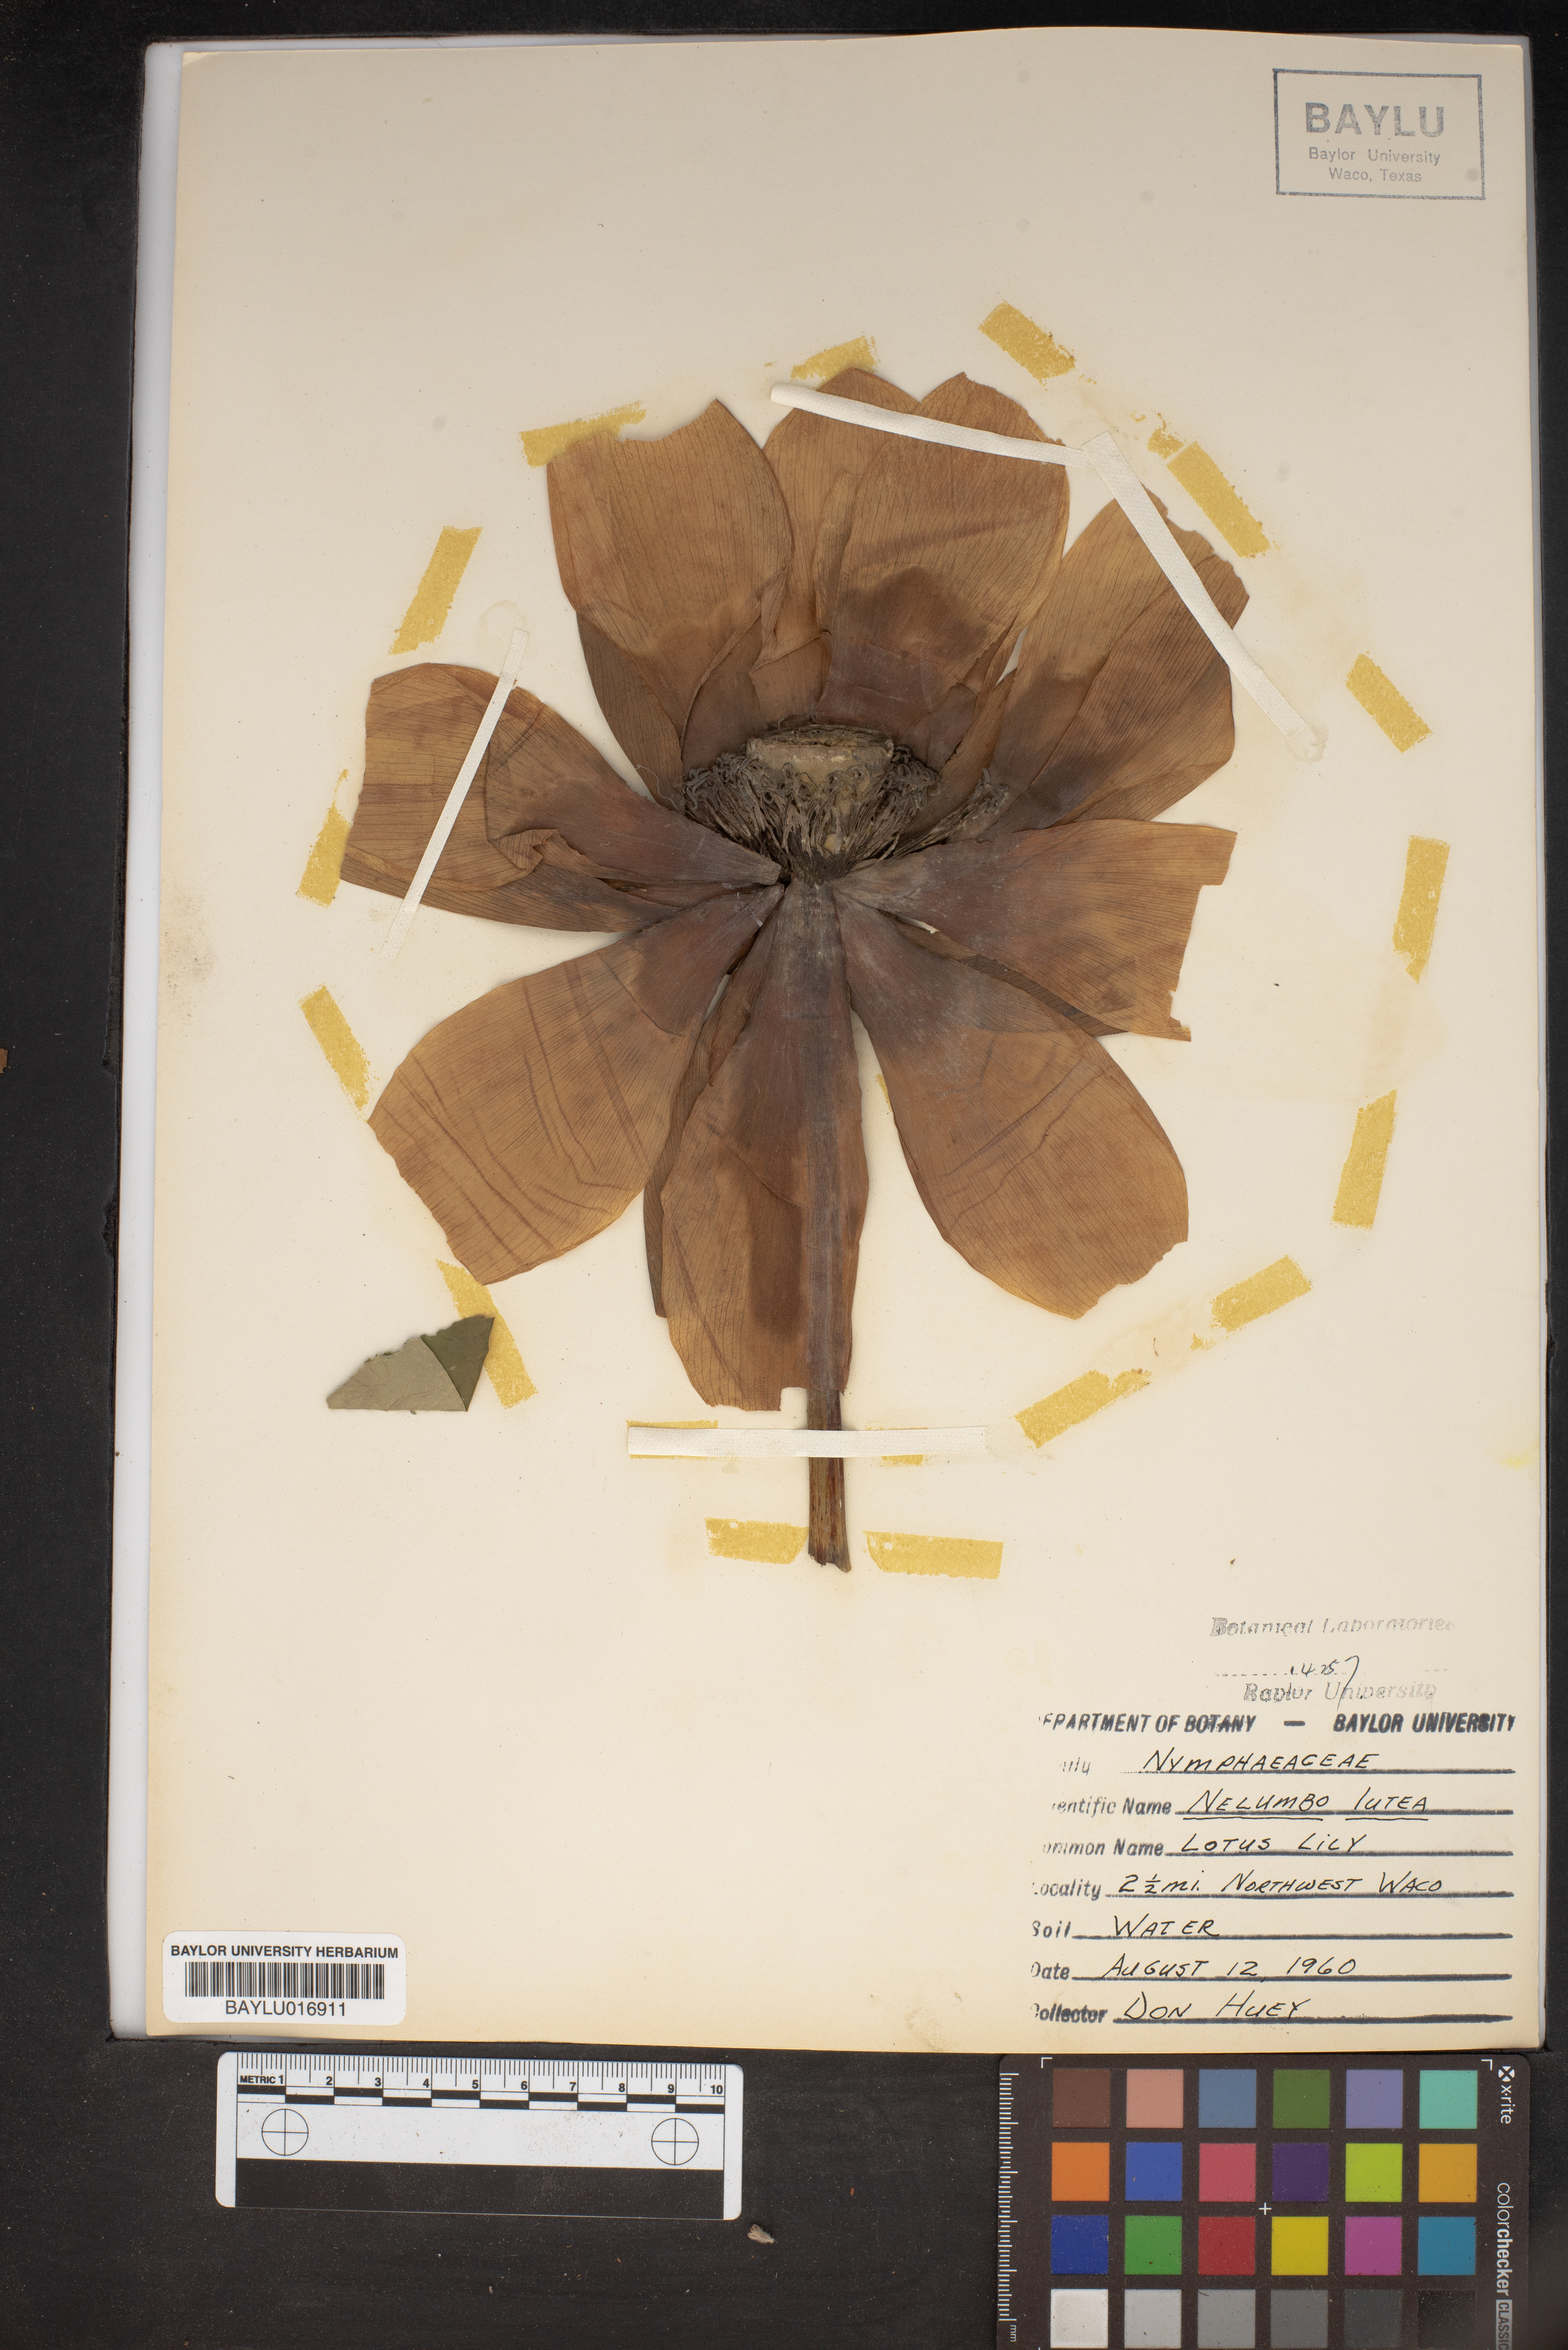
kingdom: Plantae
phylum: Tracheophyta
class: Magnoliopsida
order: Proteales
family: Nelumbonaceae
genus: Nelumbo
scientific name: Nelumbo lutea
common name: American lotus
